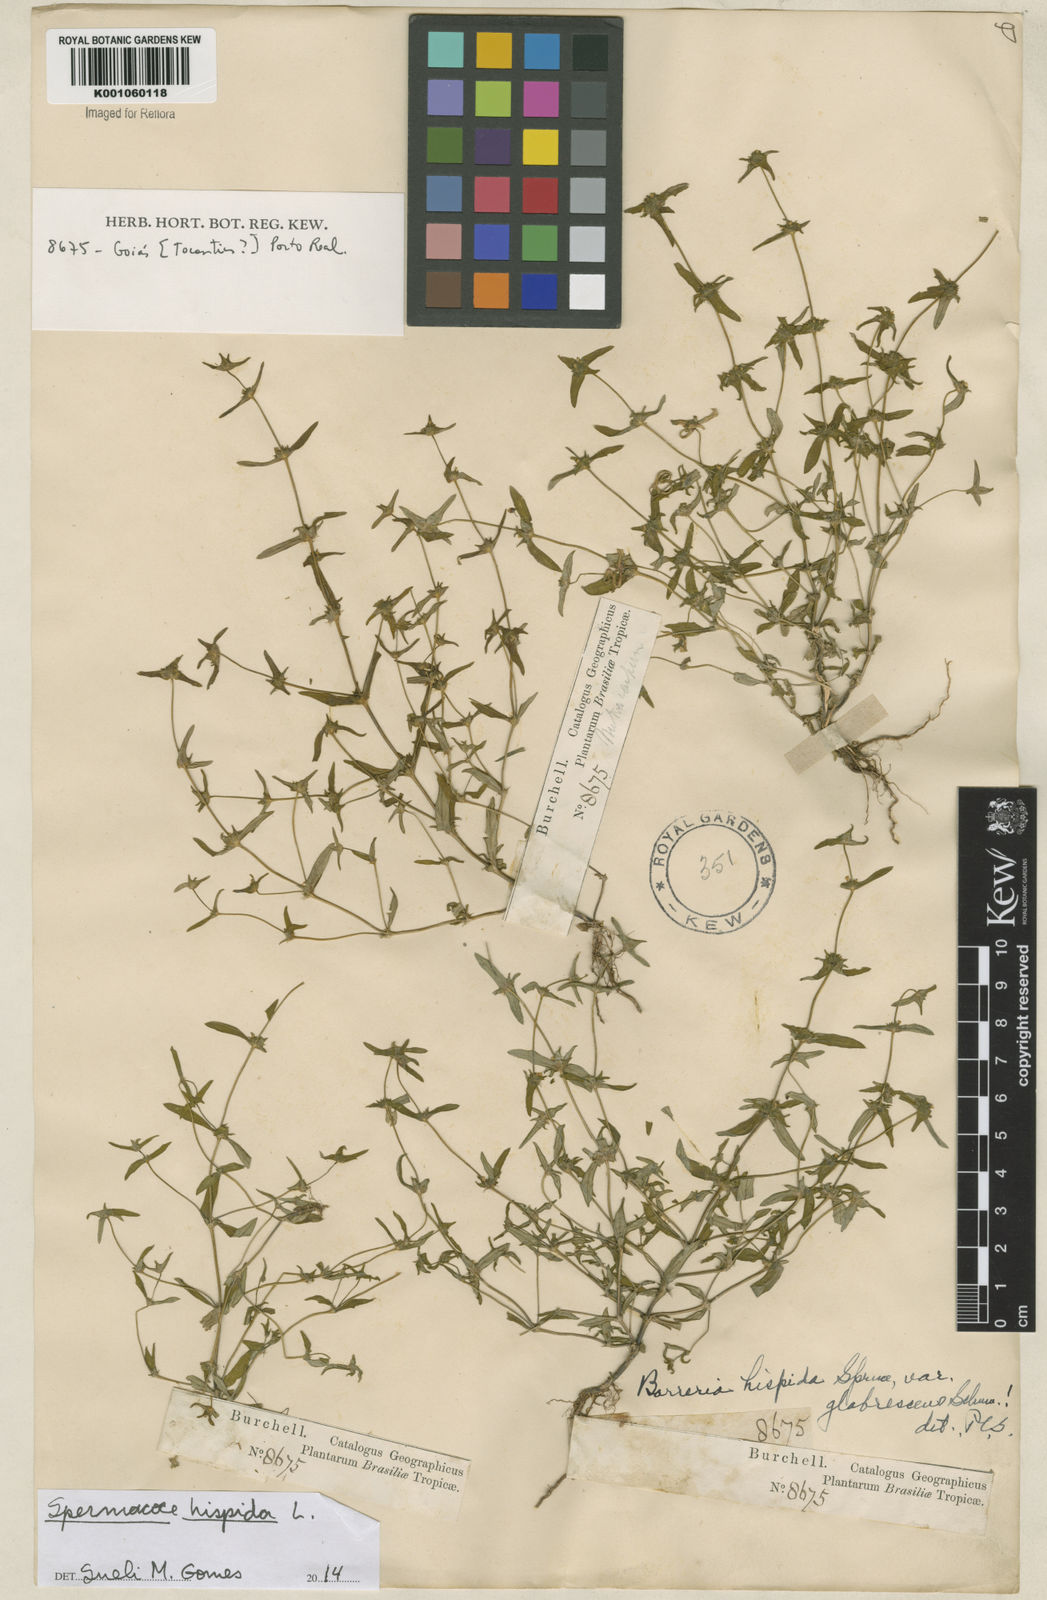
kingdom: Plantae
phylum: Tracheophyta
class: Magnoliopsida
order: Gentianales
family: Rubiaceae
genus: Spermacoce
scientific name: Spermacoce hispida
